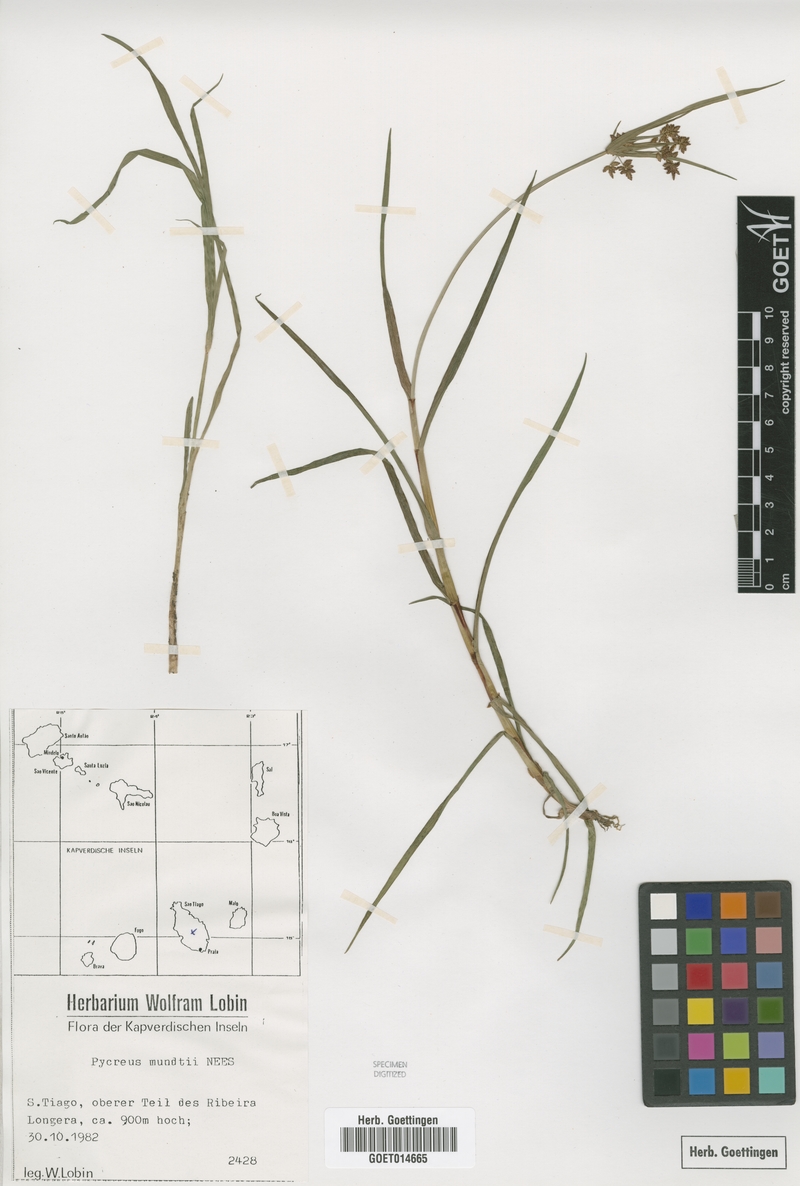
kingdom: Plantae
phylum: Tracheophyta
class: Liliopsida
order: Poales
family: Cyperaceae
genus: Cyperus
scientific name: Cyperus mundii
